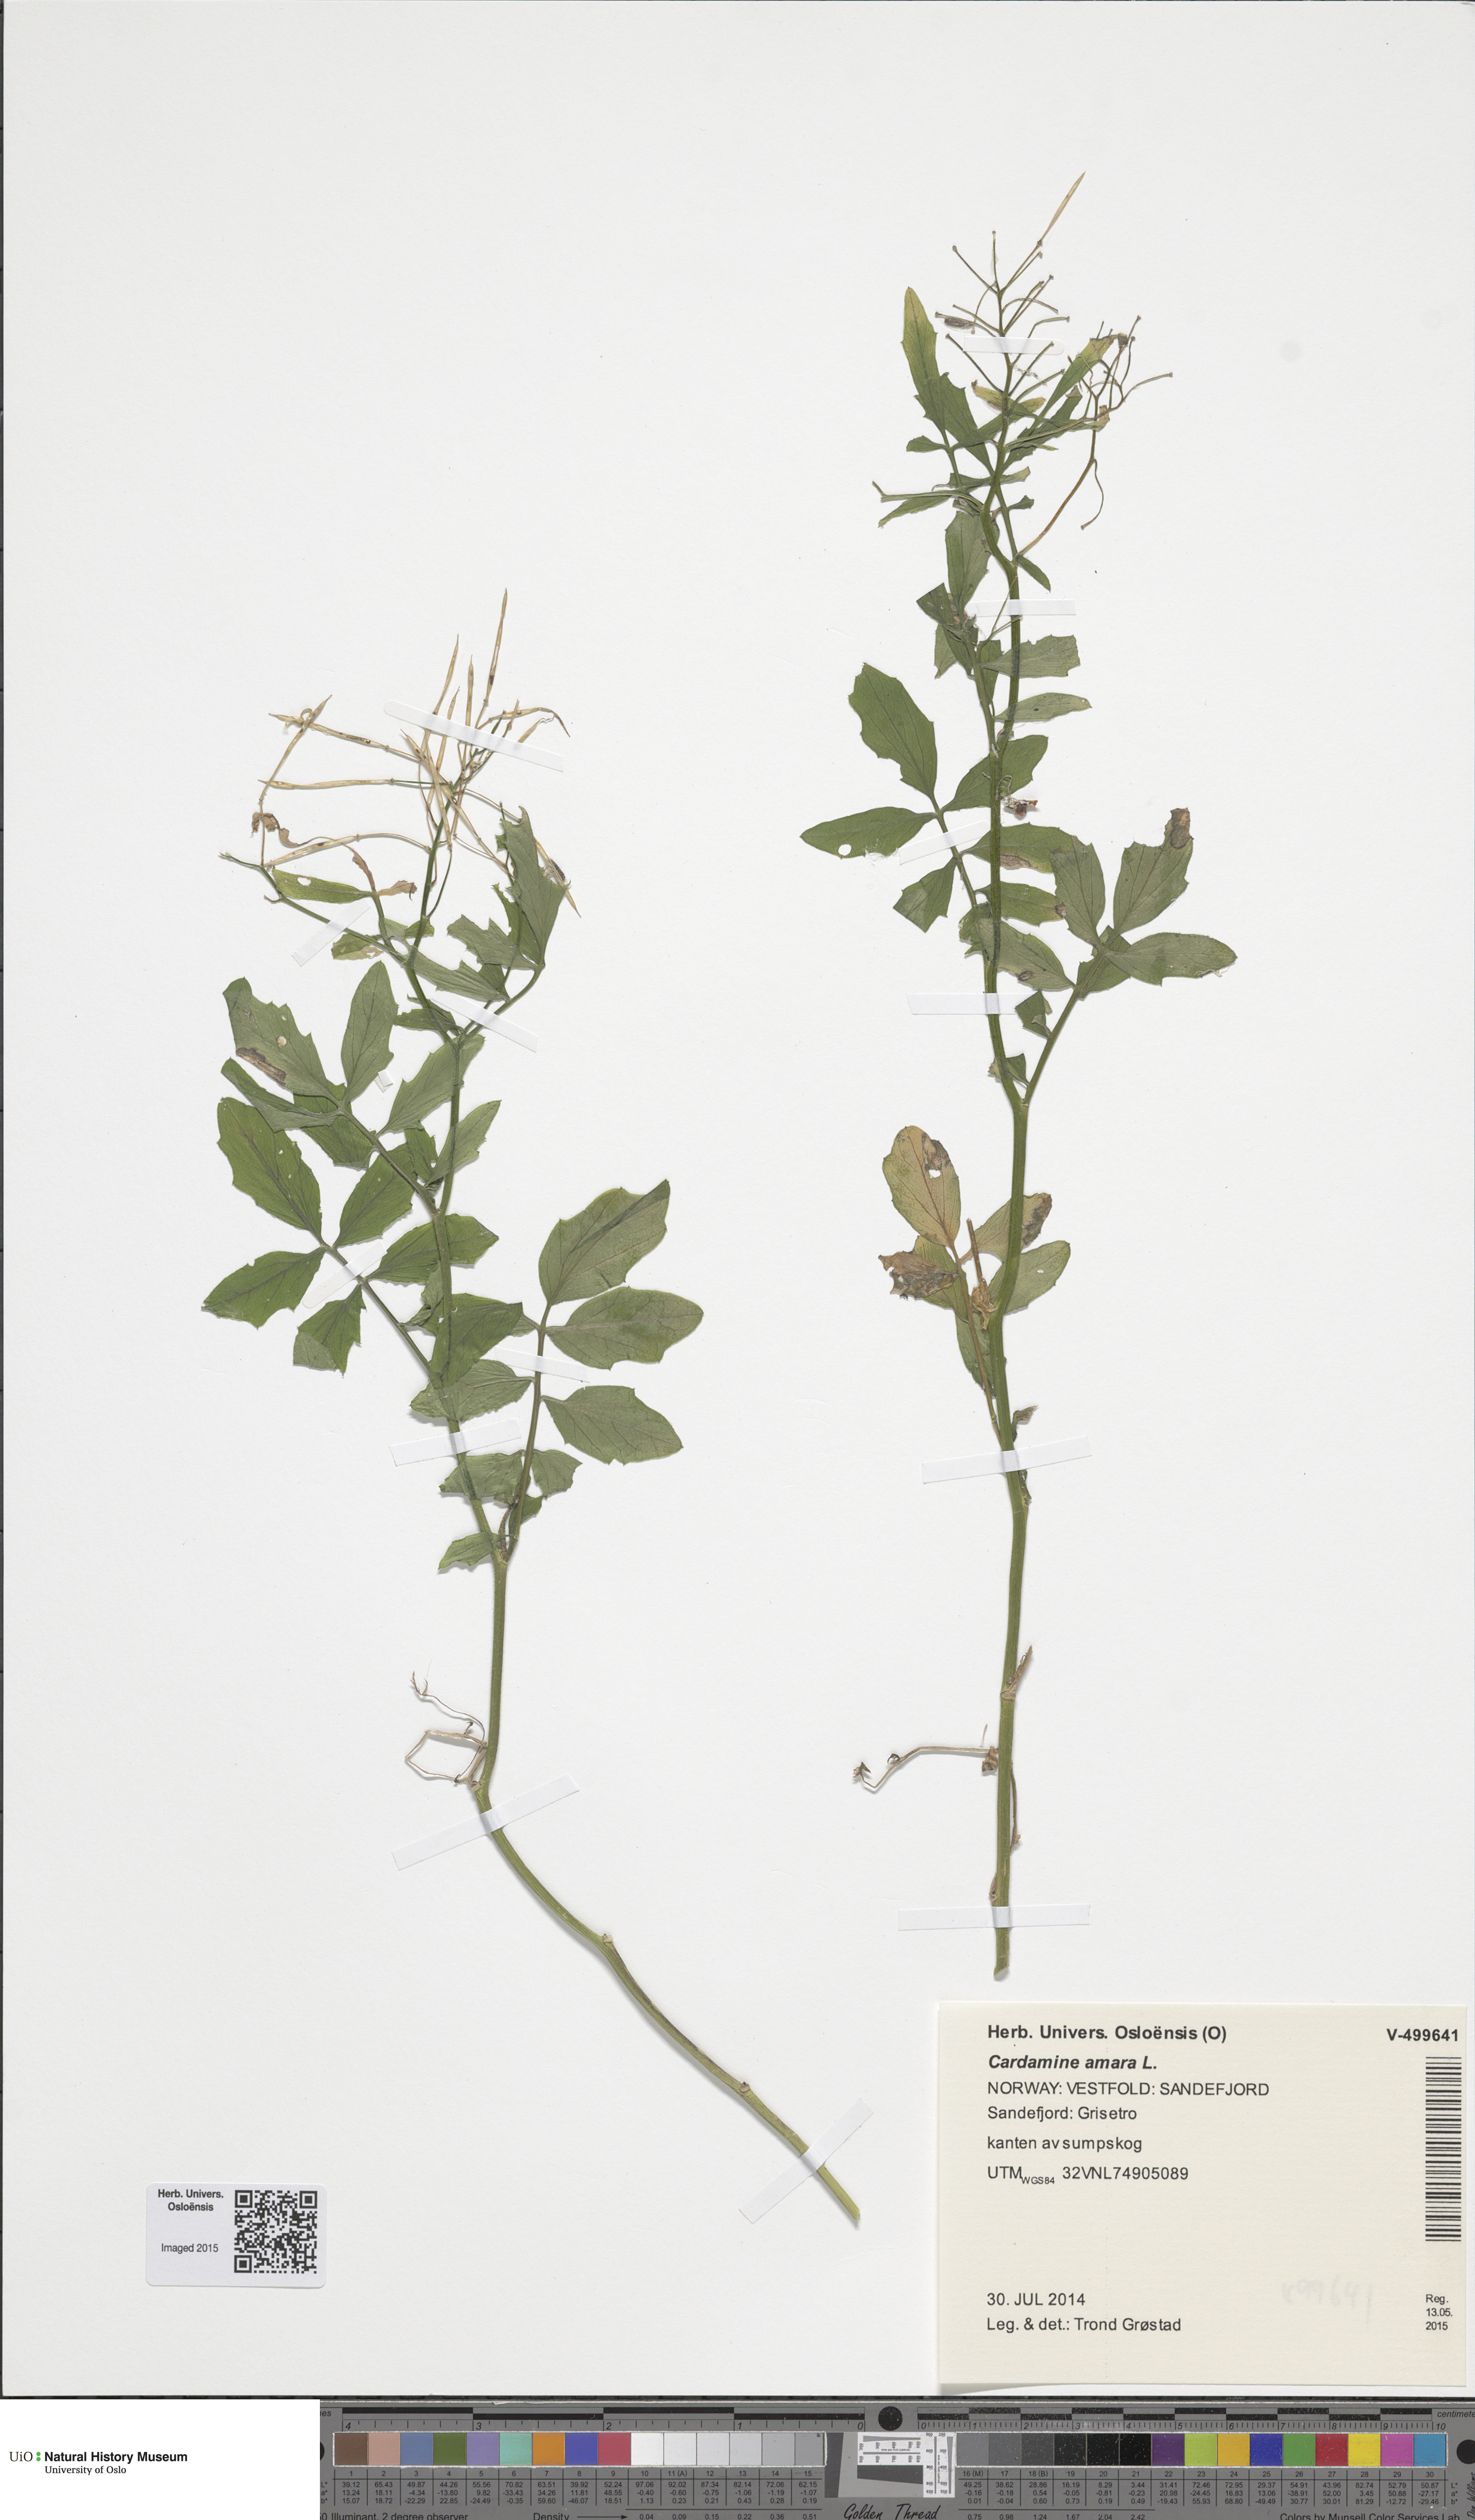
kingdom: Plantae
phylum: Tracheophyta
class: Magnoliopsida
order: Brassicales
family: Brassicaceae
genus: Cardamine
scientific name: Cardamine amara
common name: Large bitter-cress
